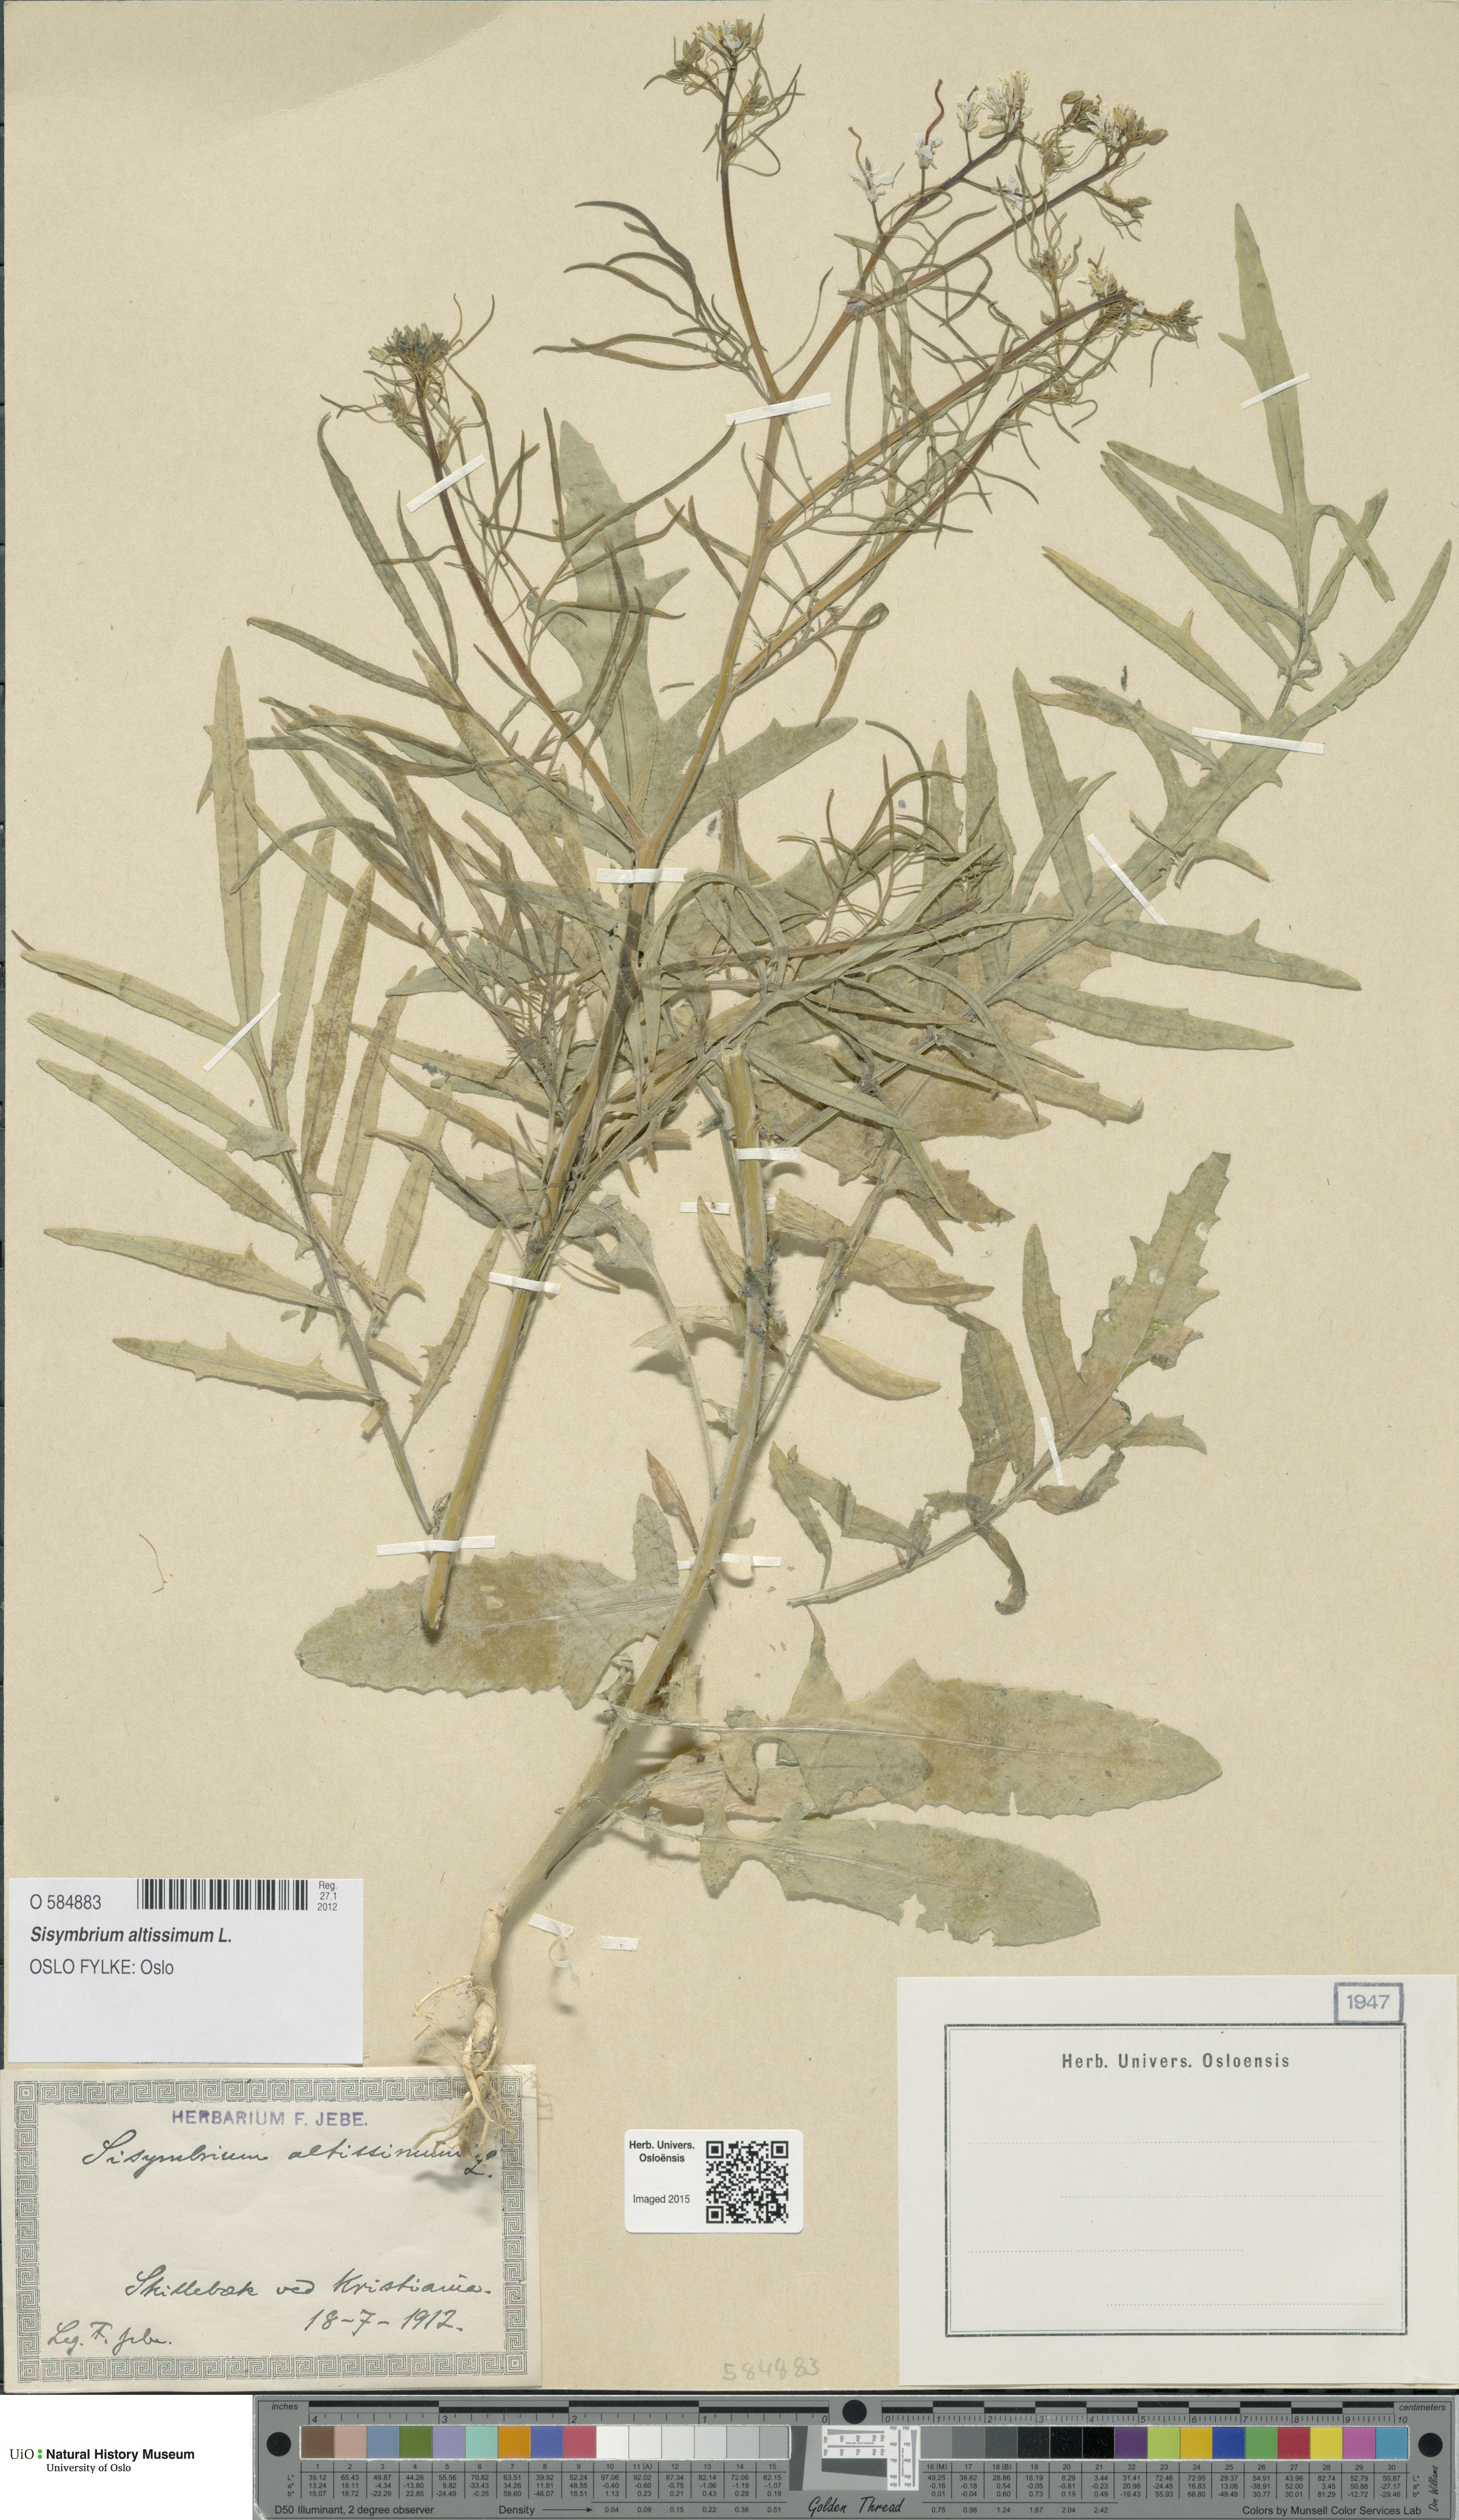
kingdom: Plantae
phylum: Tracheophyta
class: Magnoliopsida
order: Brassicales
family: Brassicaceae
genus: Sisymbrium
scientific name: Sisymbrium altissimum
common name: Tall rocket
